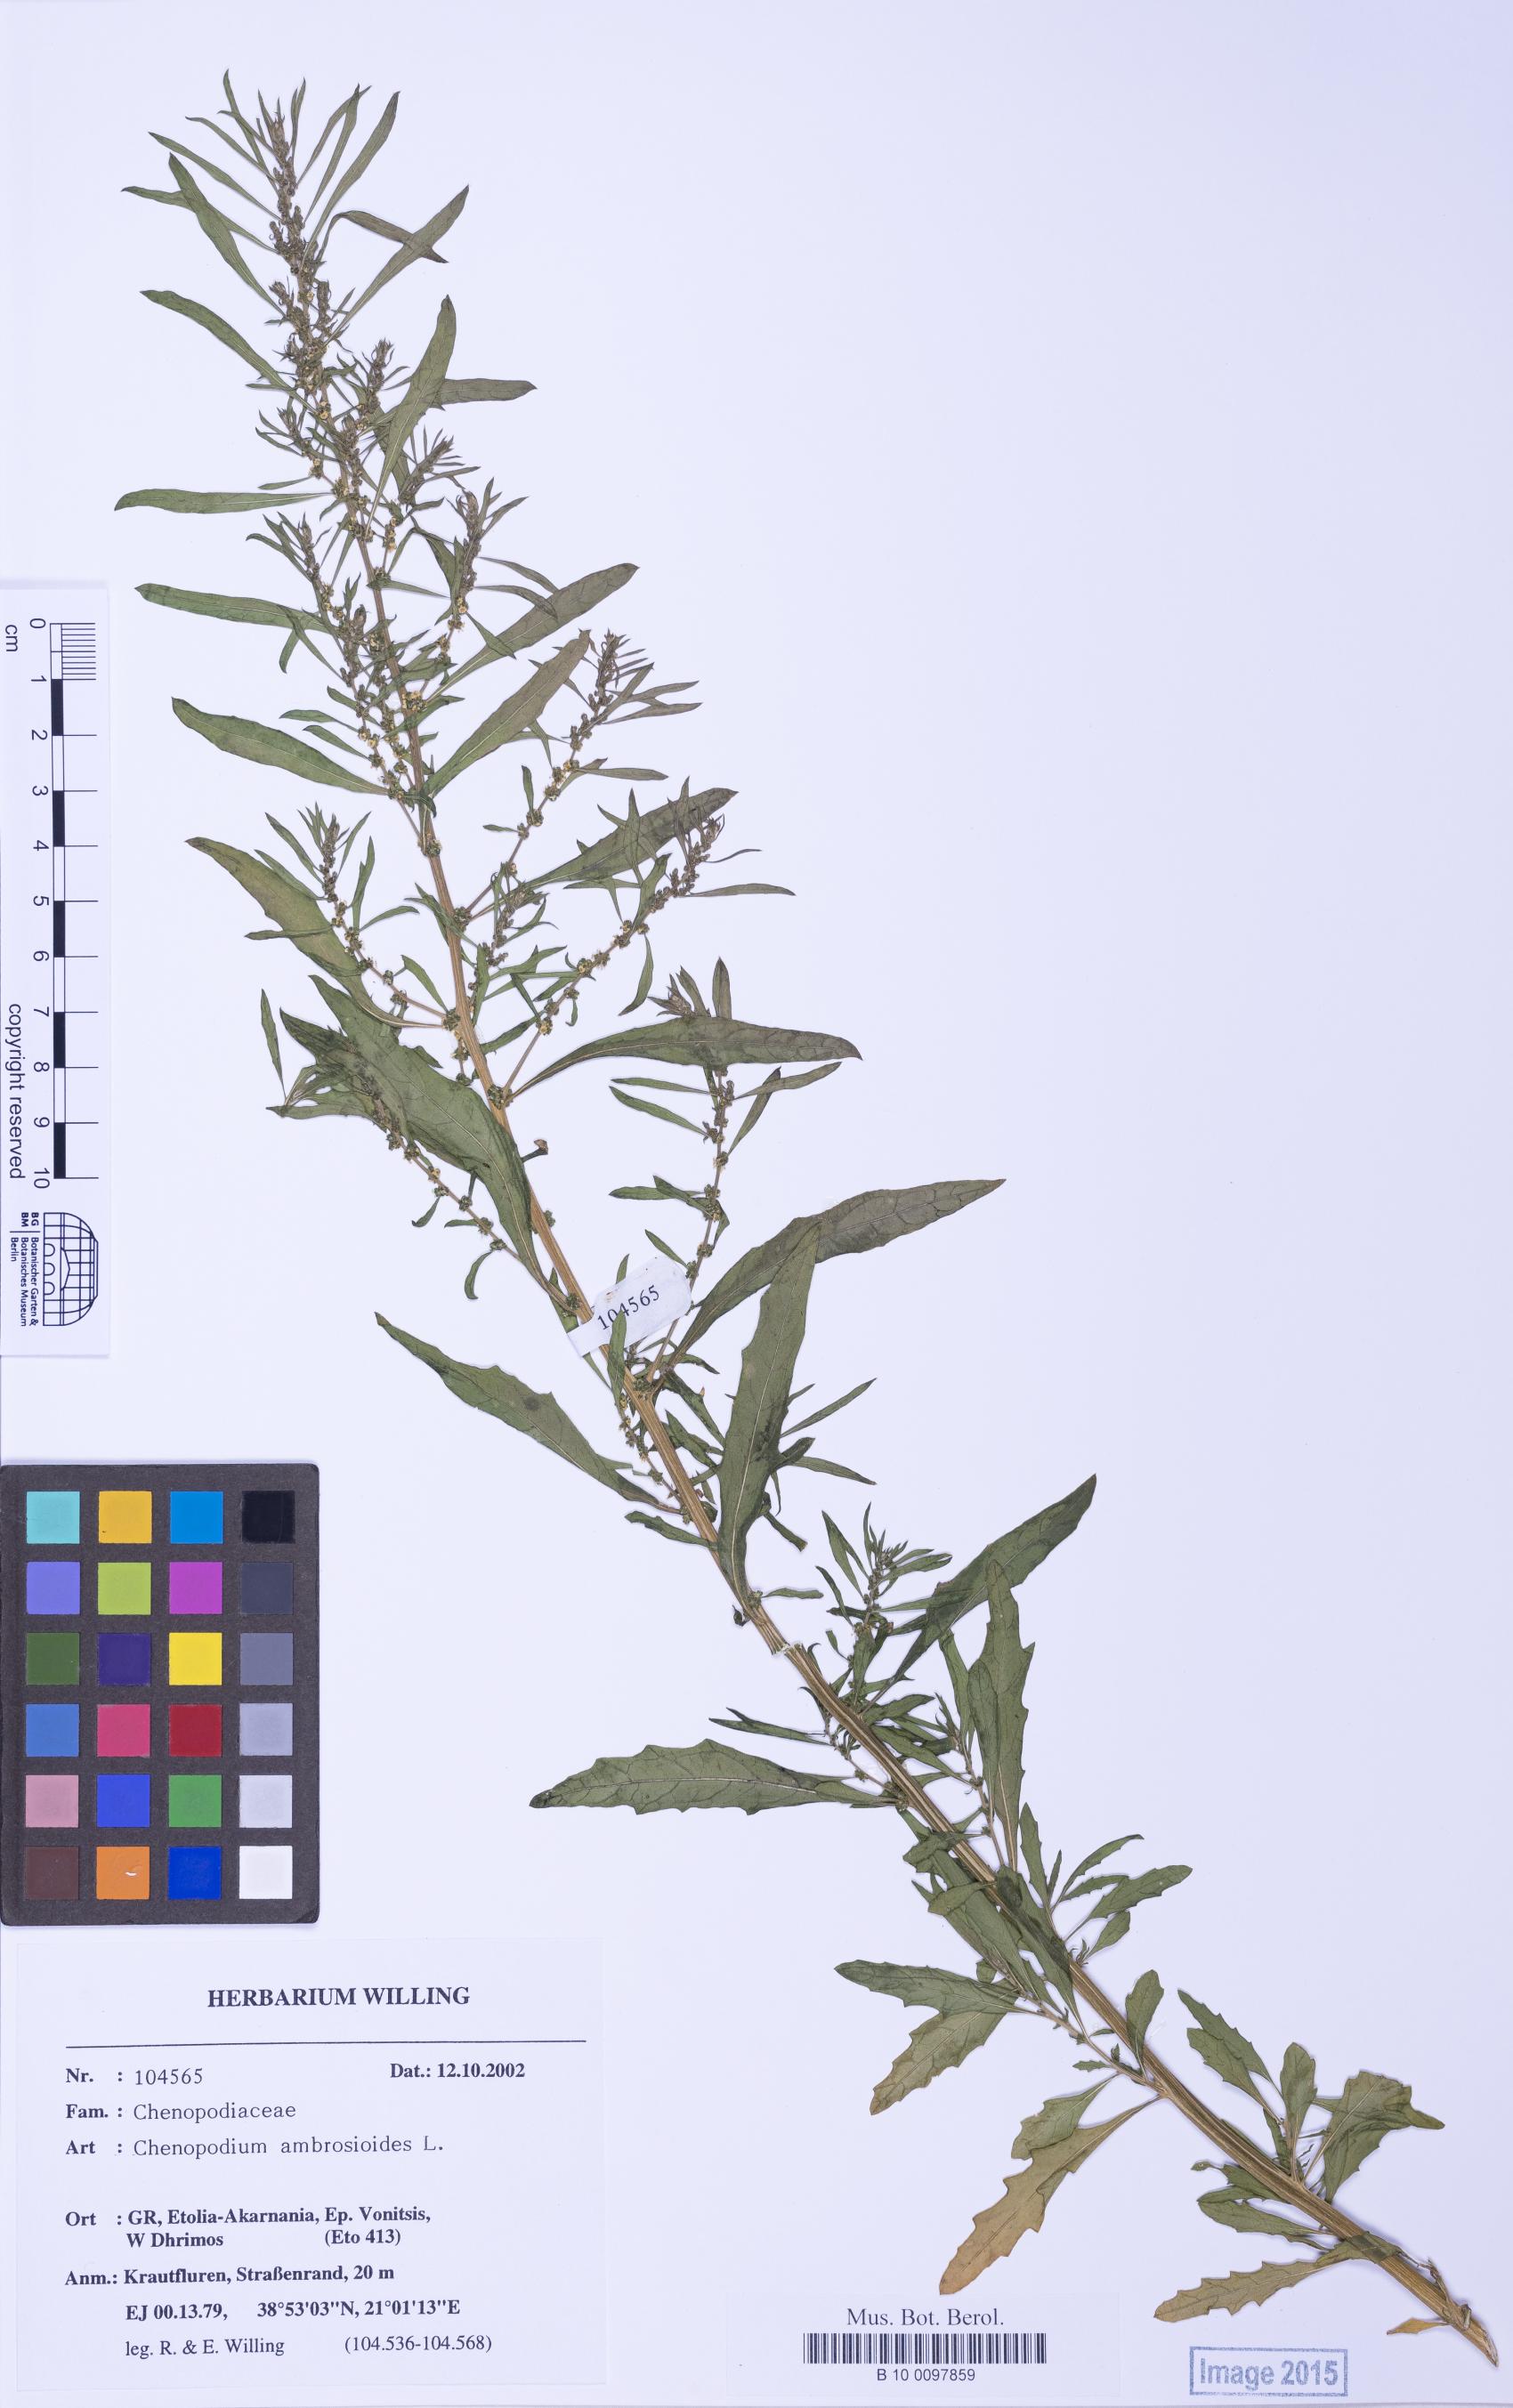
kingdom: Plantae
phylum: Tracheophyta
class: Magnoliopsida
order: Caryophyllales
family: Amaranthaceae
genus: Dysphania
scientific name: Dysphania ambrosioides
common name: Wormseed
